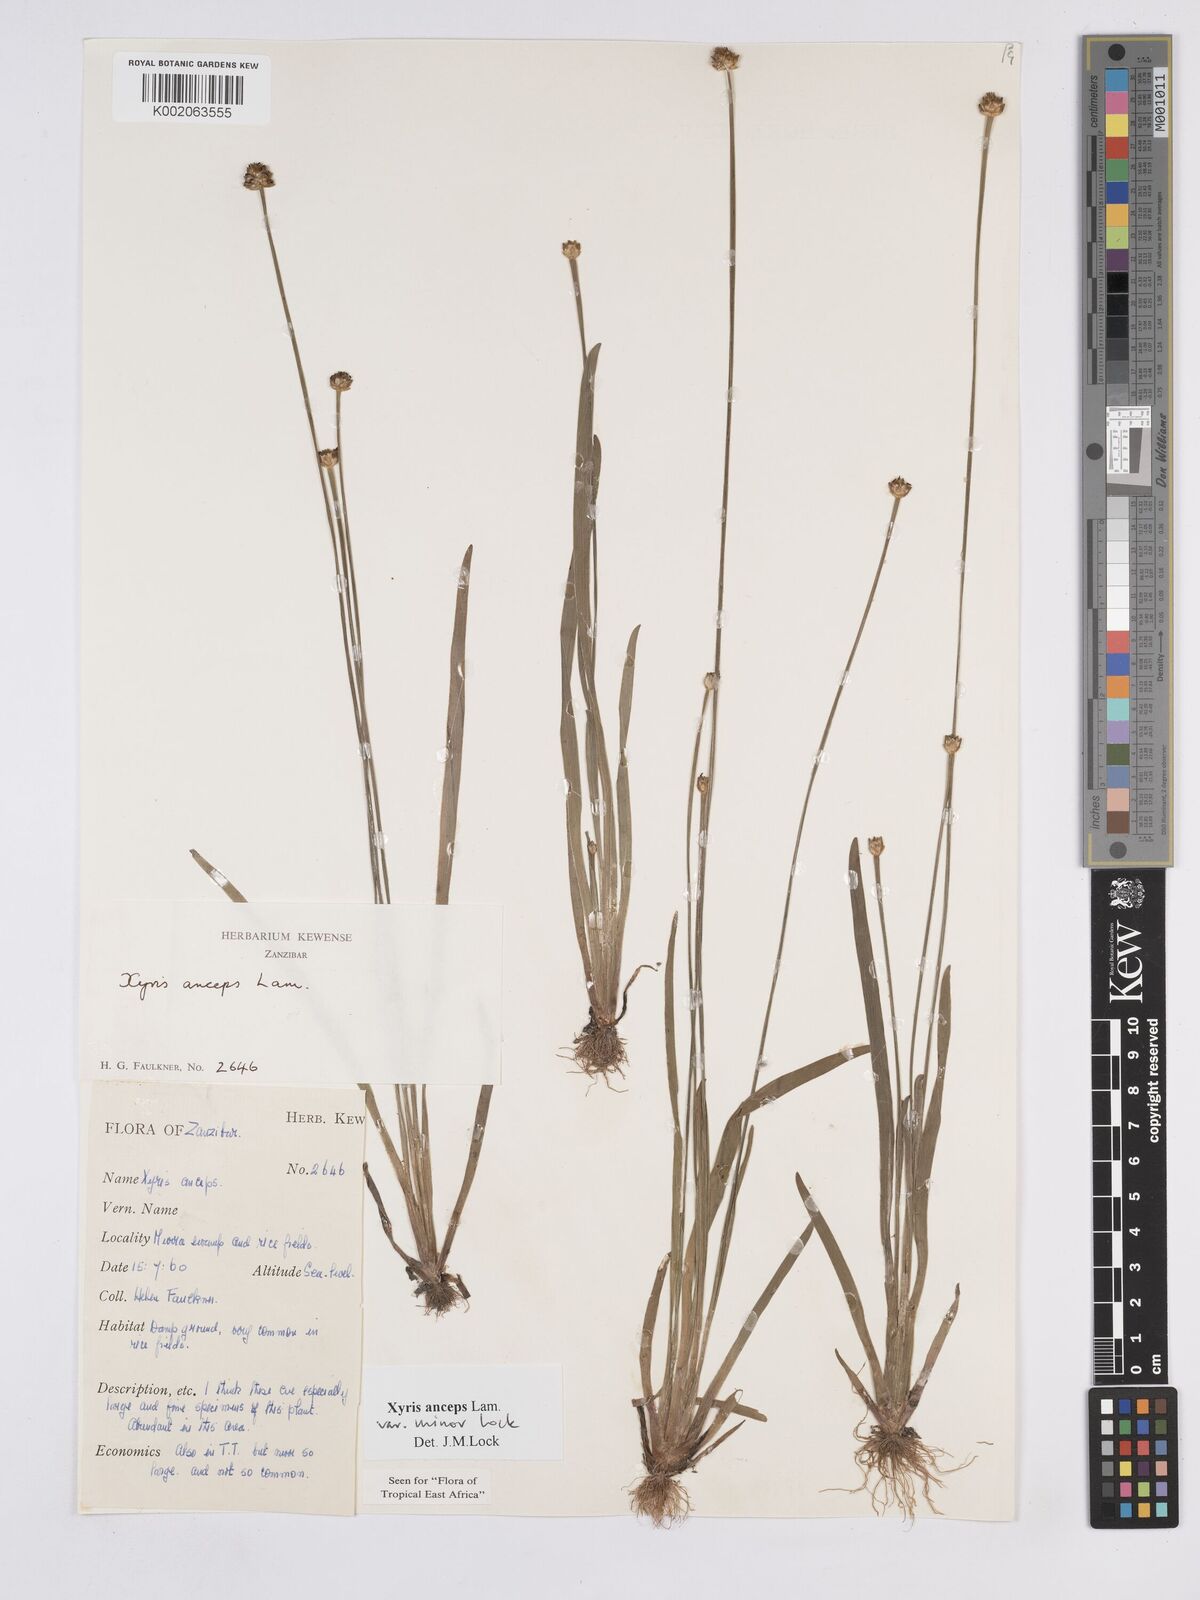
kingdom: Plantae
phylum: Tracheophyta
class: Liliopsida
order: Poales
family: Xyridaceae
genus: Xyris
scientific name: Xyris anceps
